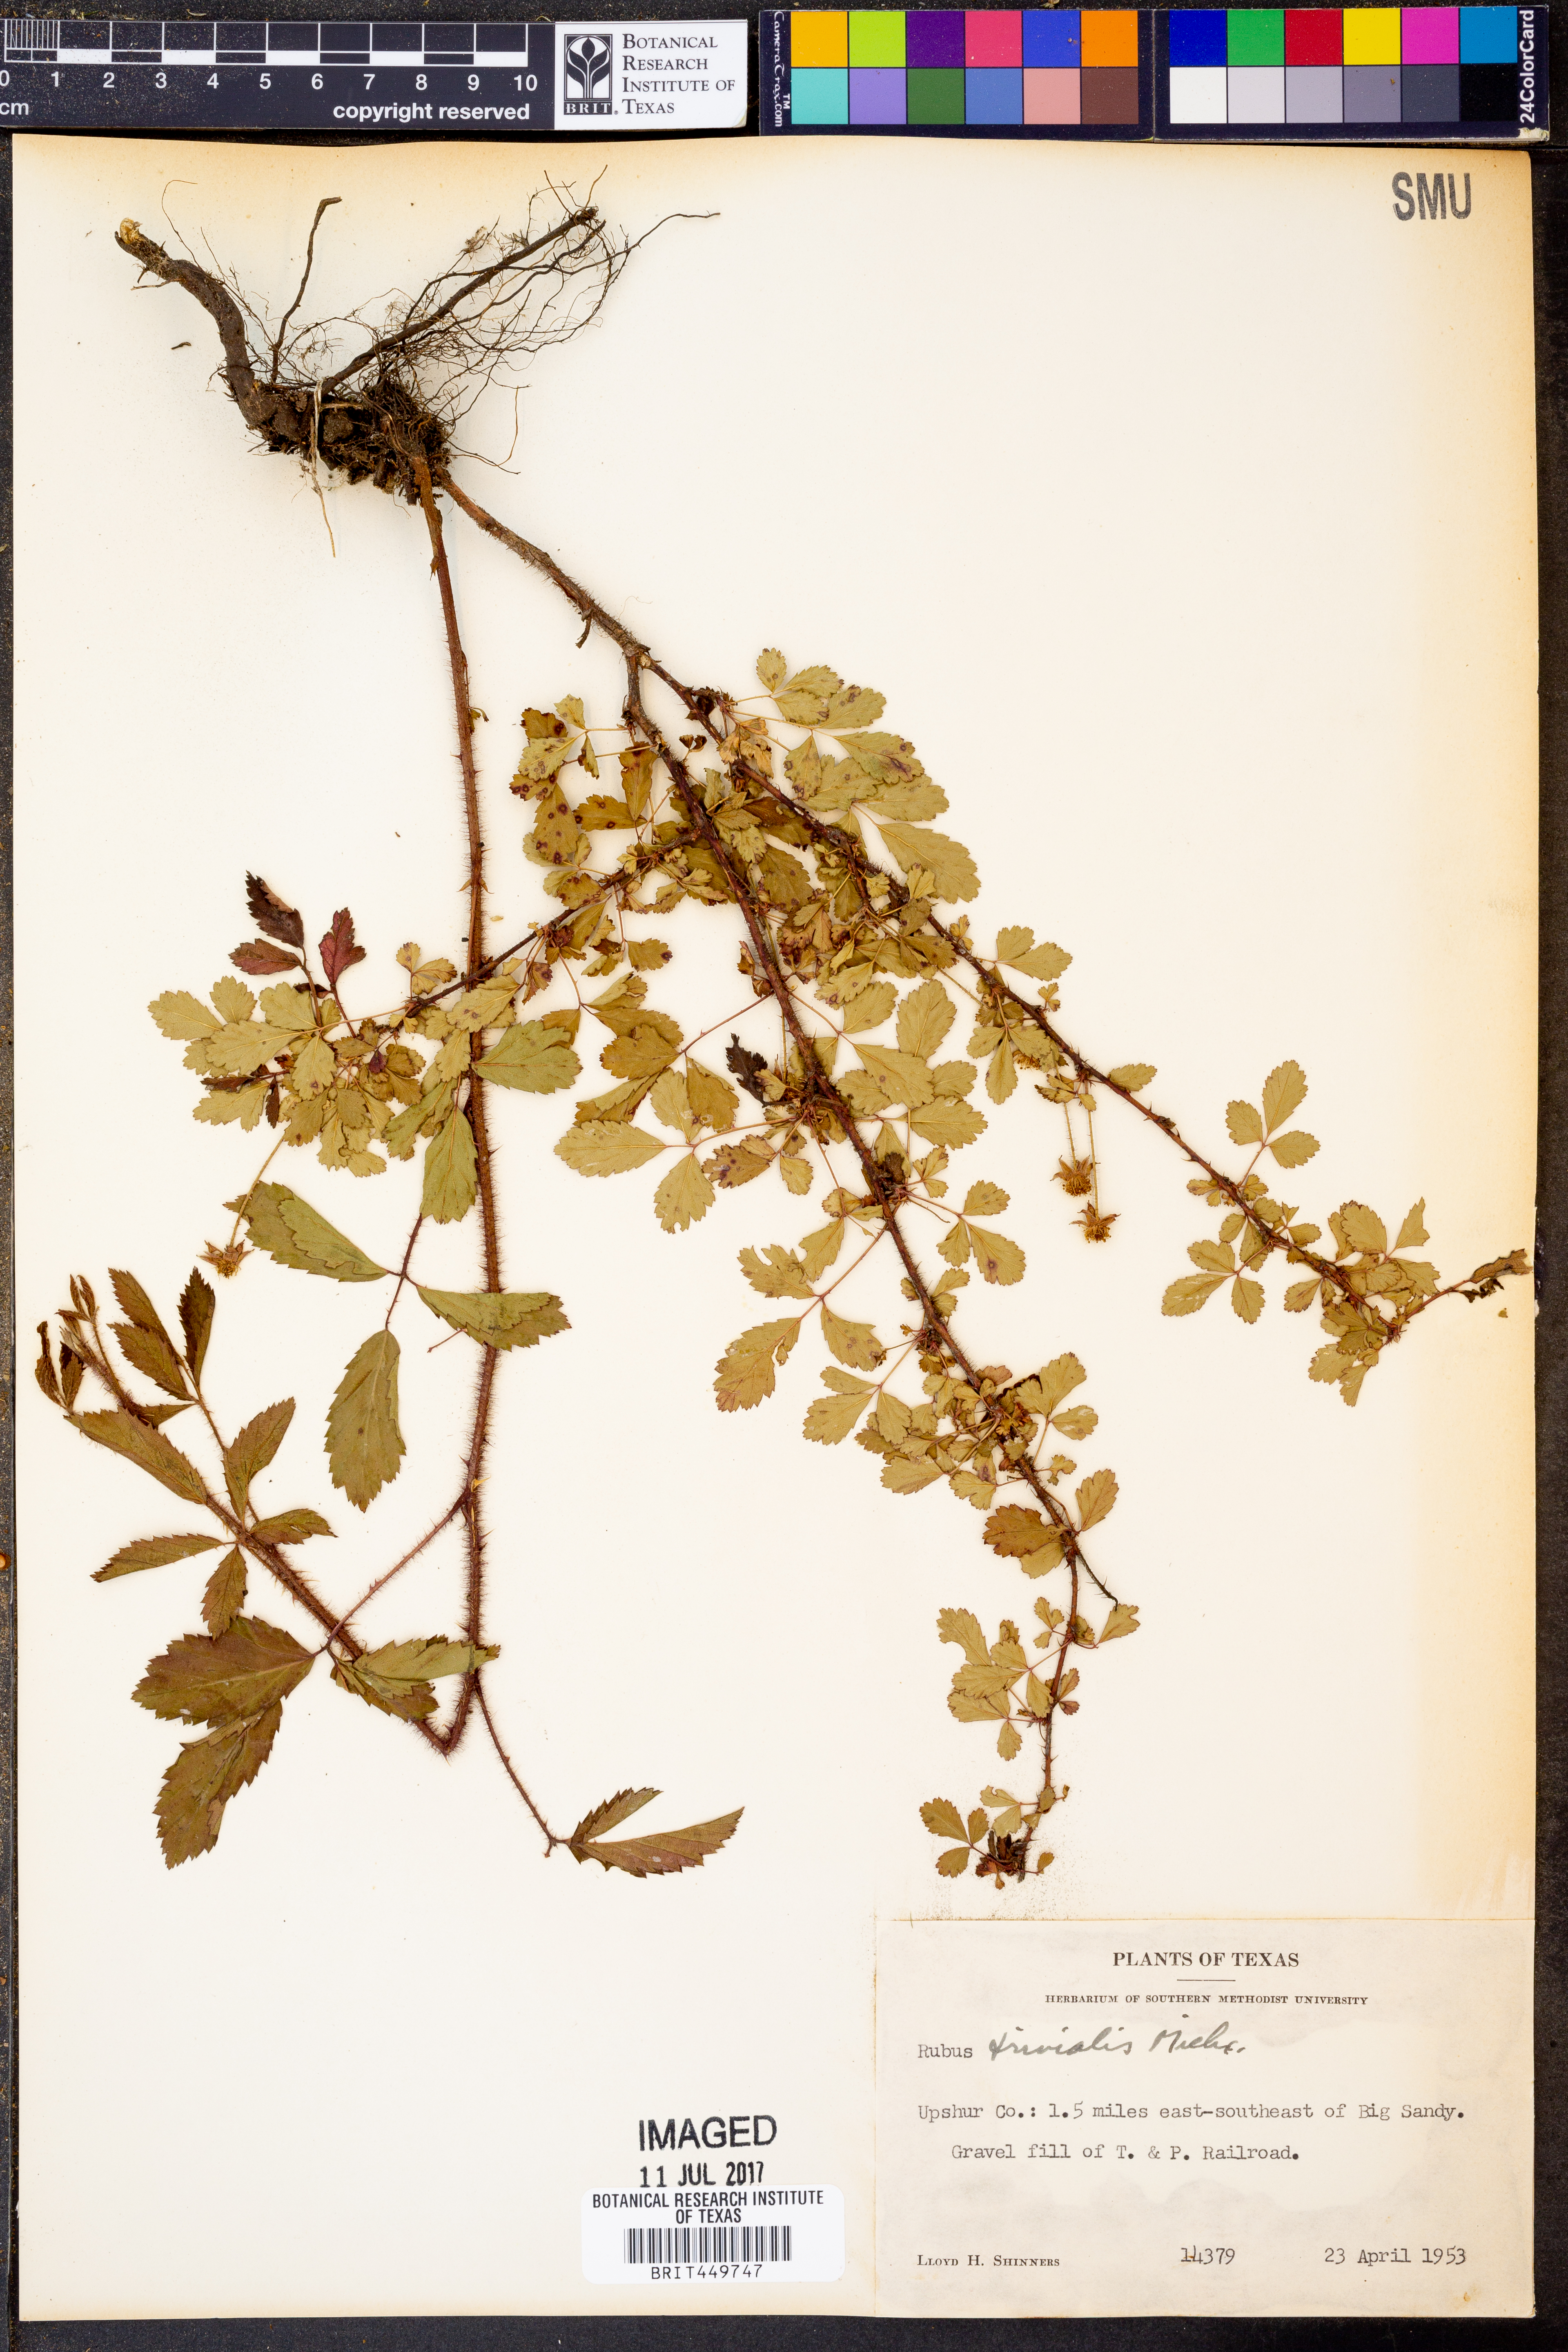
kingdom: Plantae
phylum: Tracheophyta
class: Magnoliopsida
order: Rosales
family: Rosaceae
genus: Rubus
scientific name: Rubus trivialis
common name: Southern dewberry
